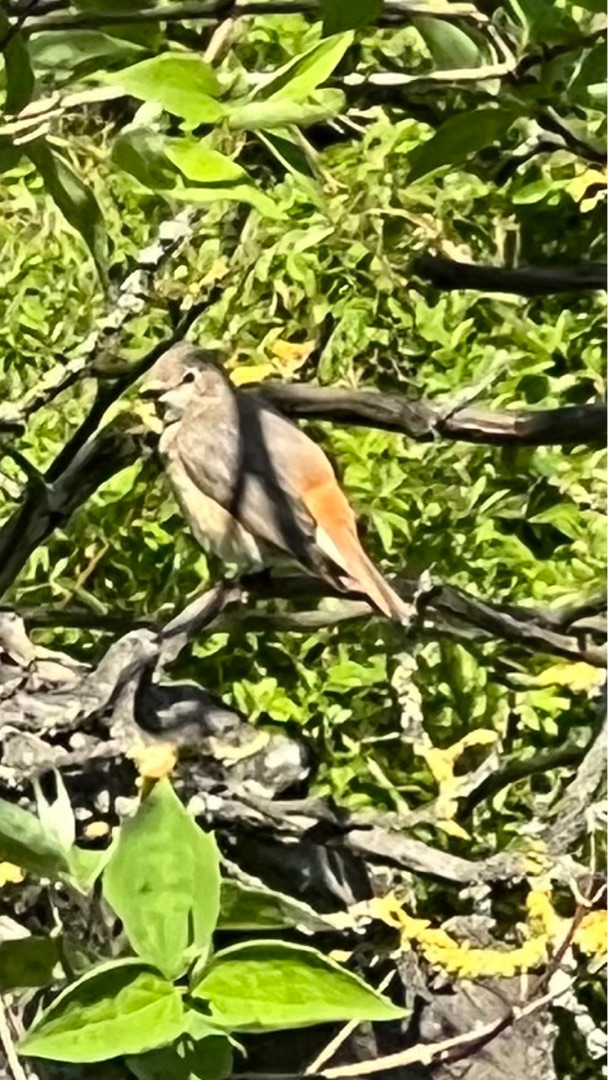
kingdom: Animalia
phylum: Chordata
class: Aves
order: Passeriformes
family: Muscicapidae
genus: Phoenicurus
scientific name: Phoenicurus phoenicurus
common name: Rødstjert
